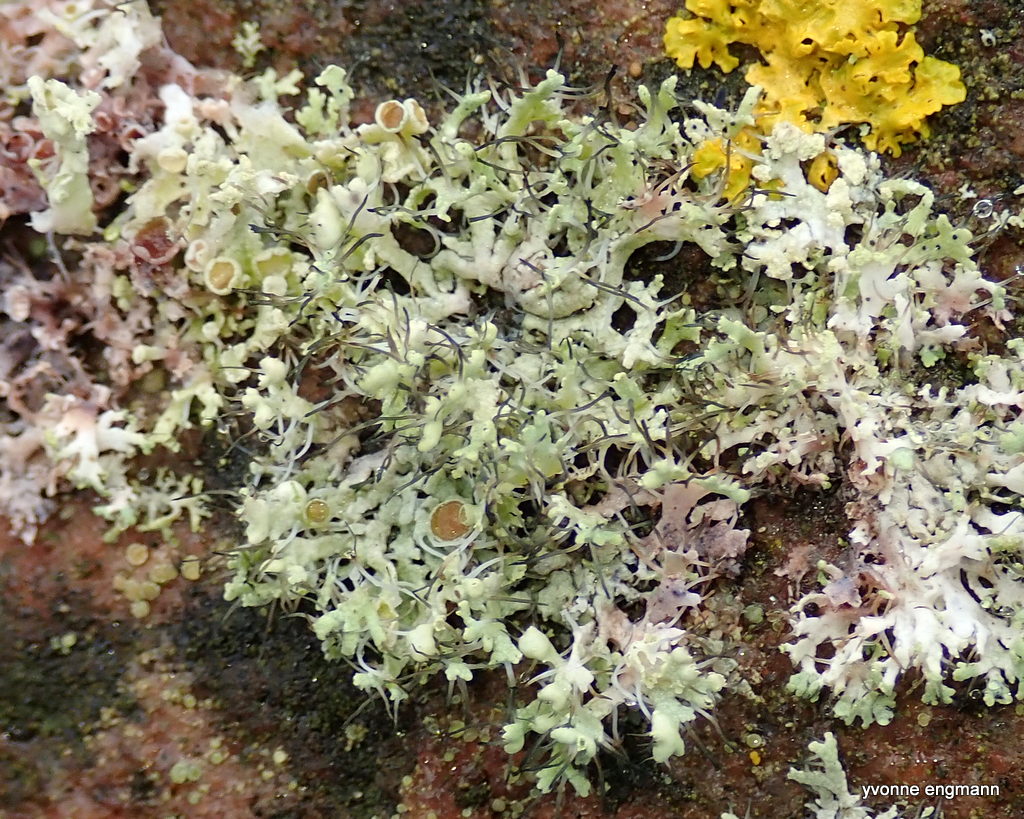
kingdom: Fungi
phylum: Ascomycota
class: Lecanoromycetes
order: Caliciales
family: Physciaceae
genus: Physcia
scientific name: Physcia tenella
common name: spæd rosetlav
